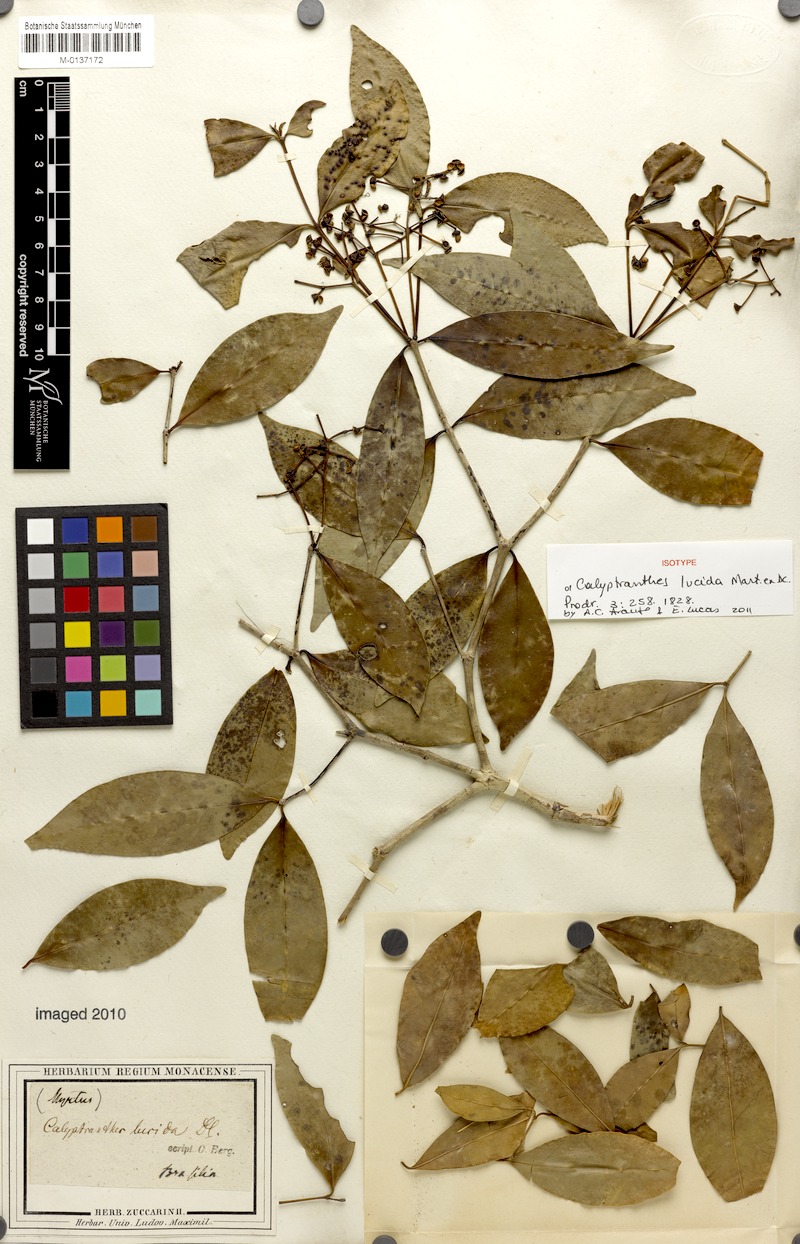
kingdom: Plantae
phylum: Tracheophyta
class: Magnoliopsida
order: Myrtales
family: Myrtaceae
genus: Myrcia
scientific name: Myrcia neolucida
